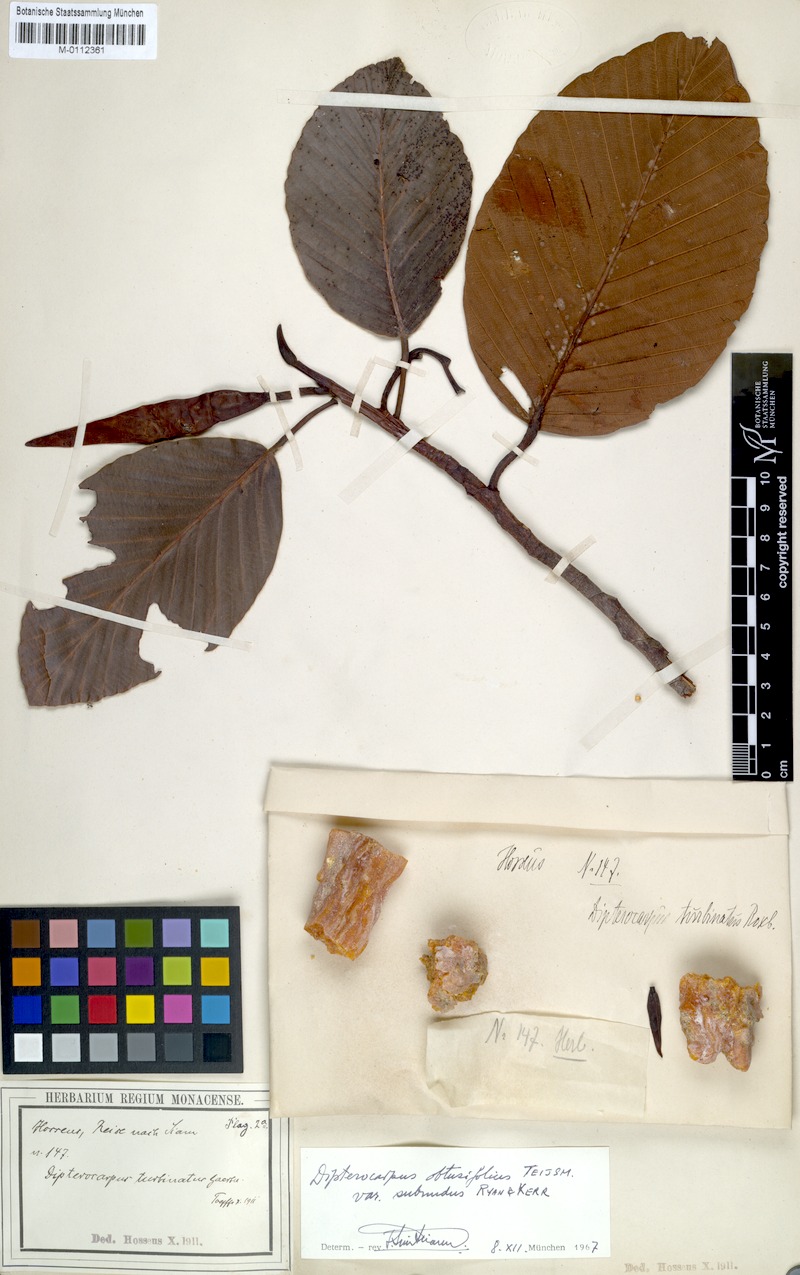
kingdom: Plantae
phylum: Tracheophyta
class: Magnoliopsida
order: Malvales
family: Dipterocarpaceae
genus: Dipterocarpus
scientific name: Dipterocarpus obtusifolius
